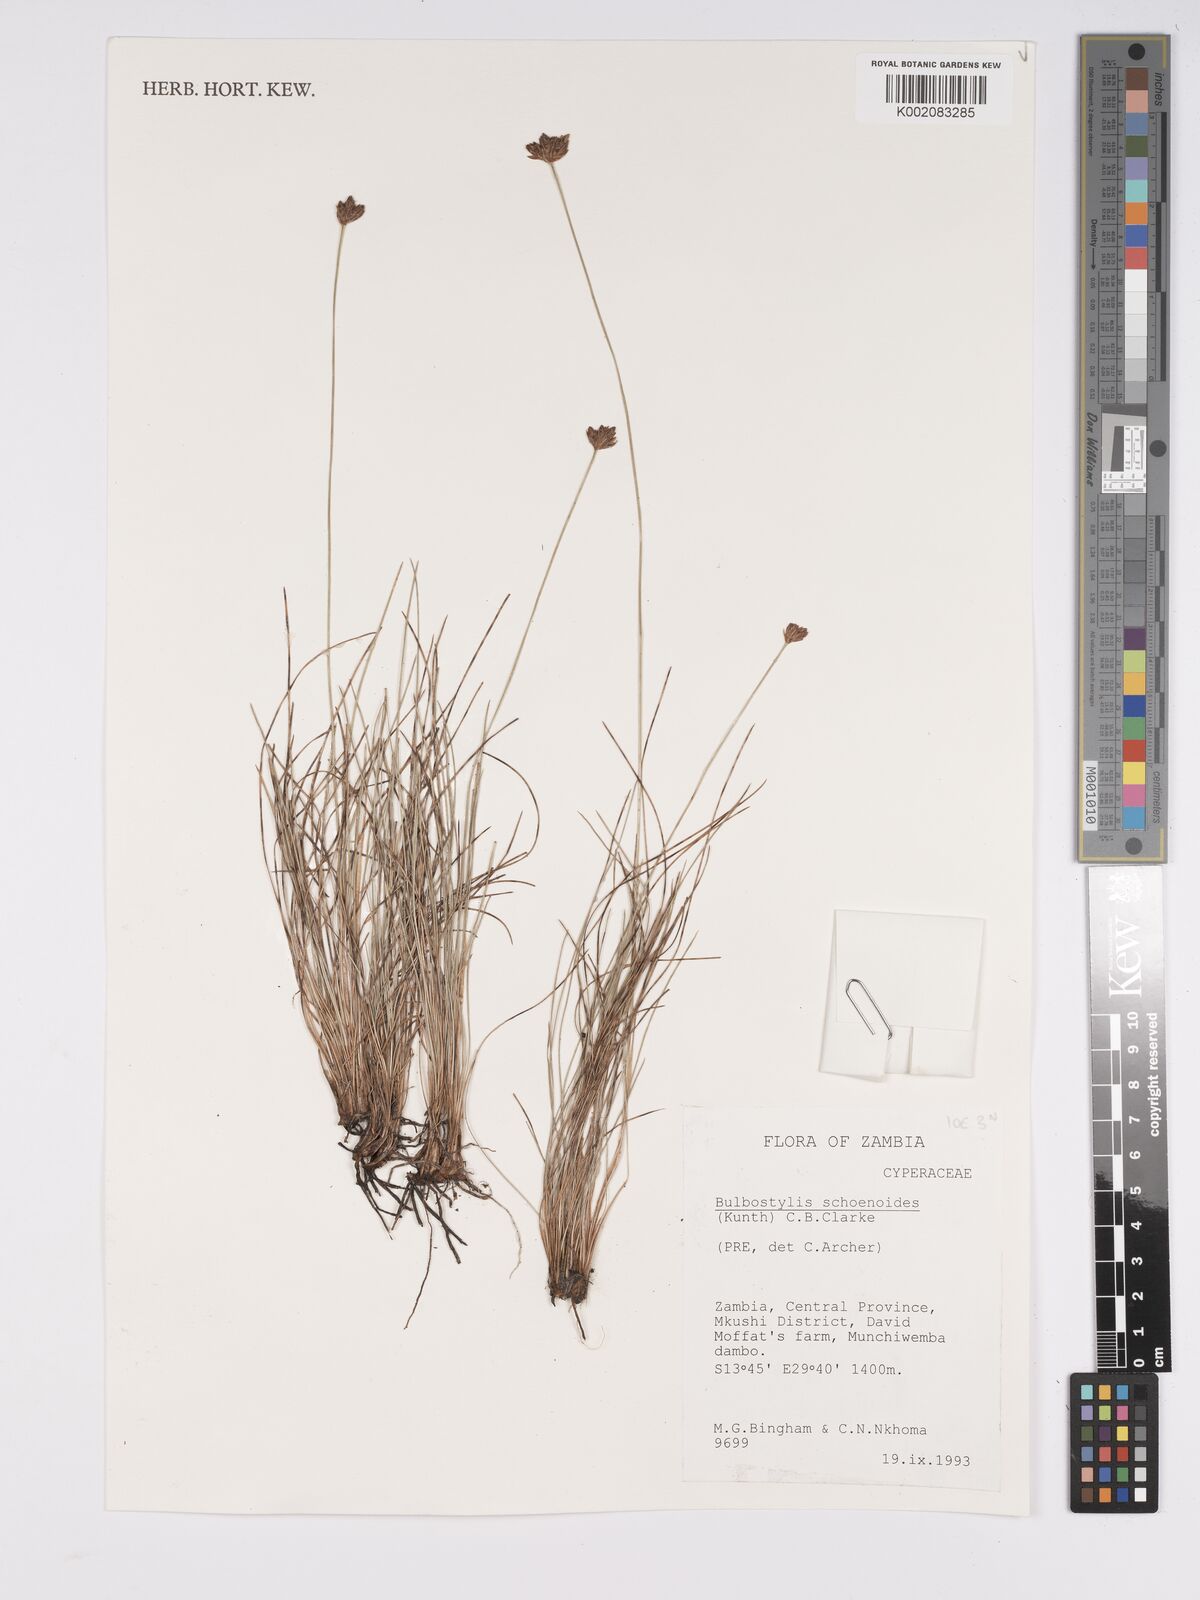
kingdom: Plantae
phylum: Tracheophyta
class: Liliopsida
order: Poales
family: Cyperaceae
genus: Bulbostylis
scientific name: Bulbostylis schoenoides
